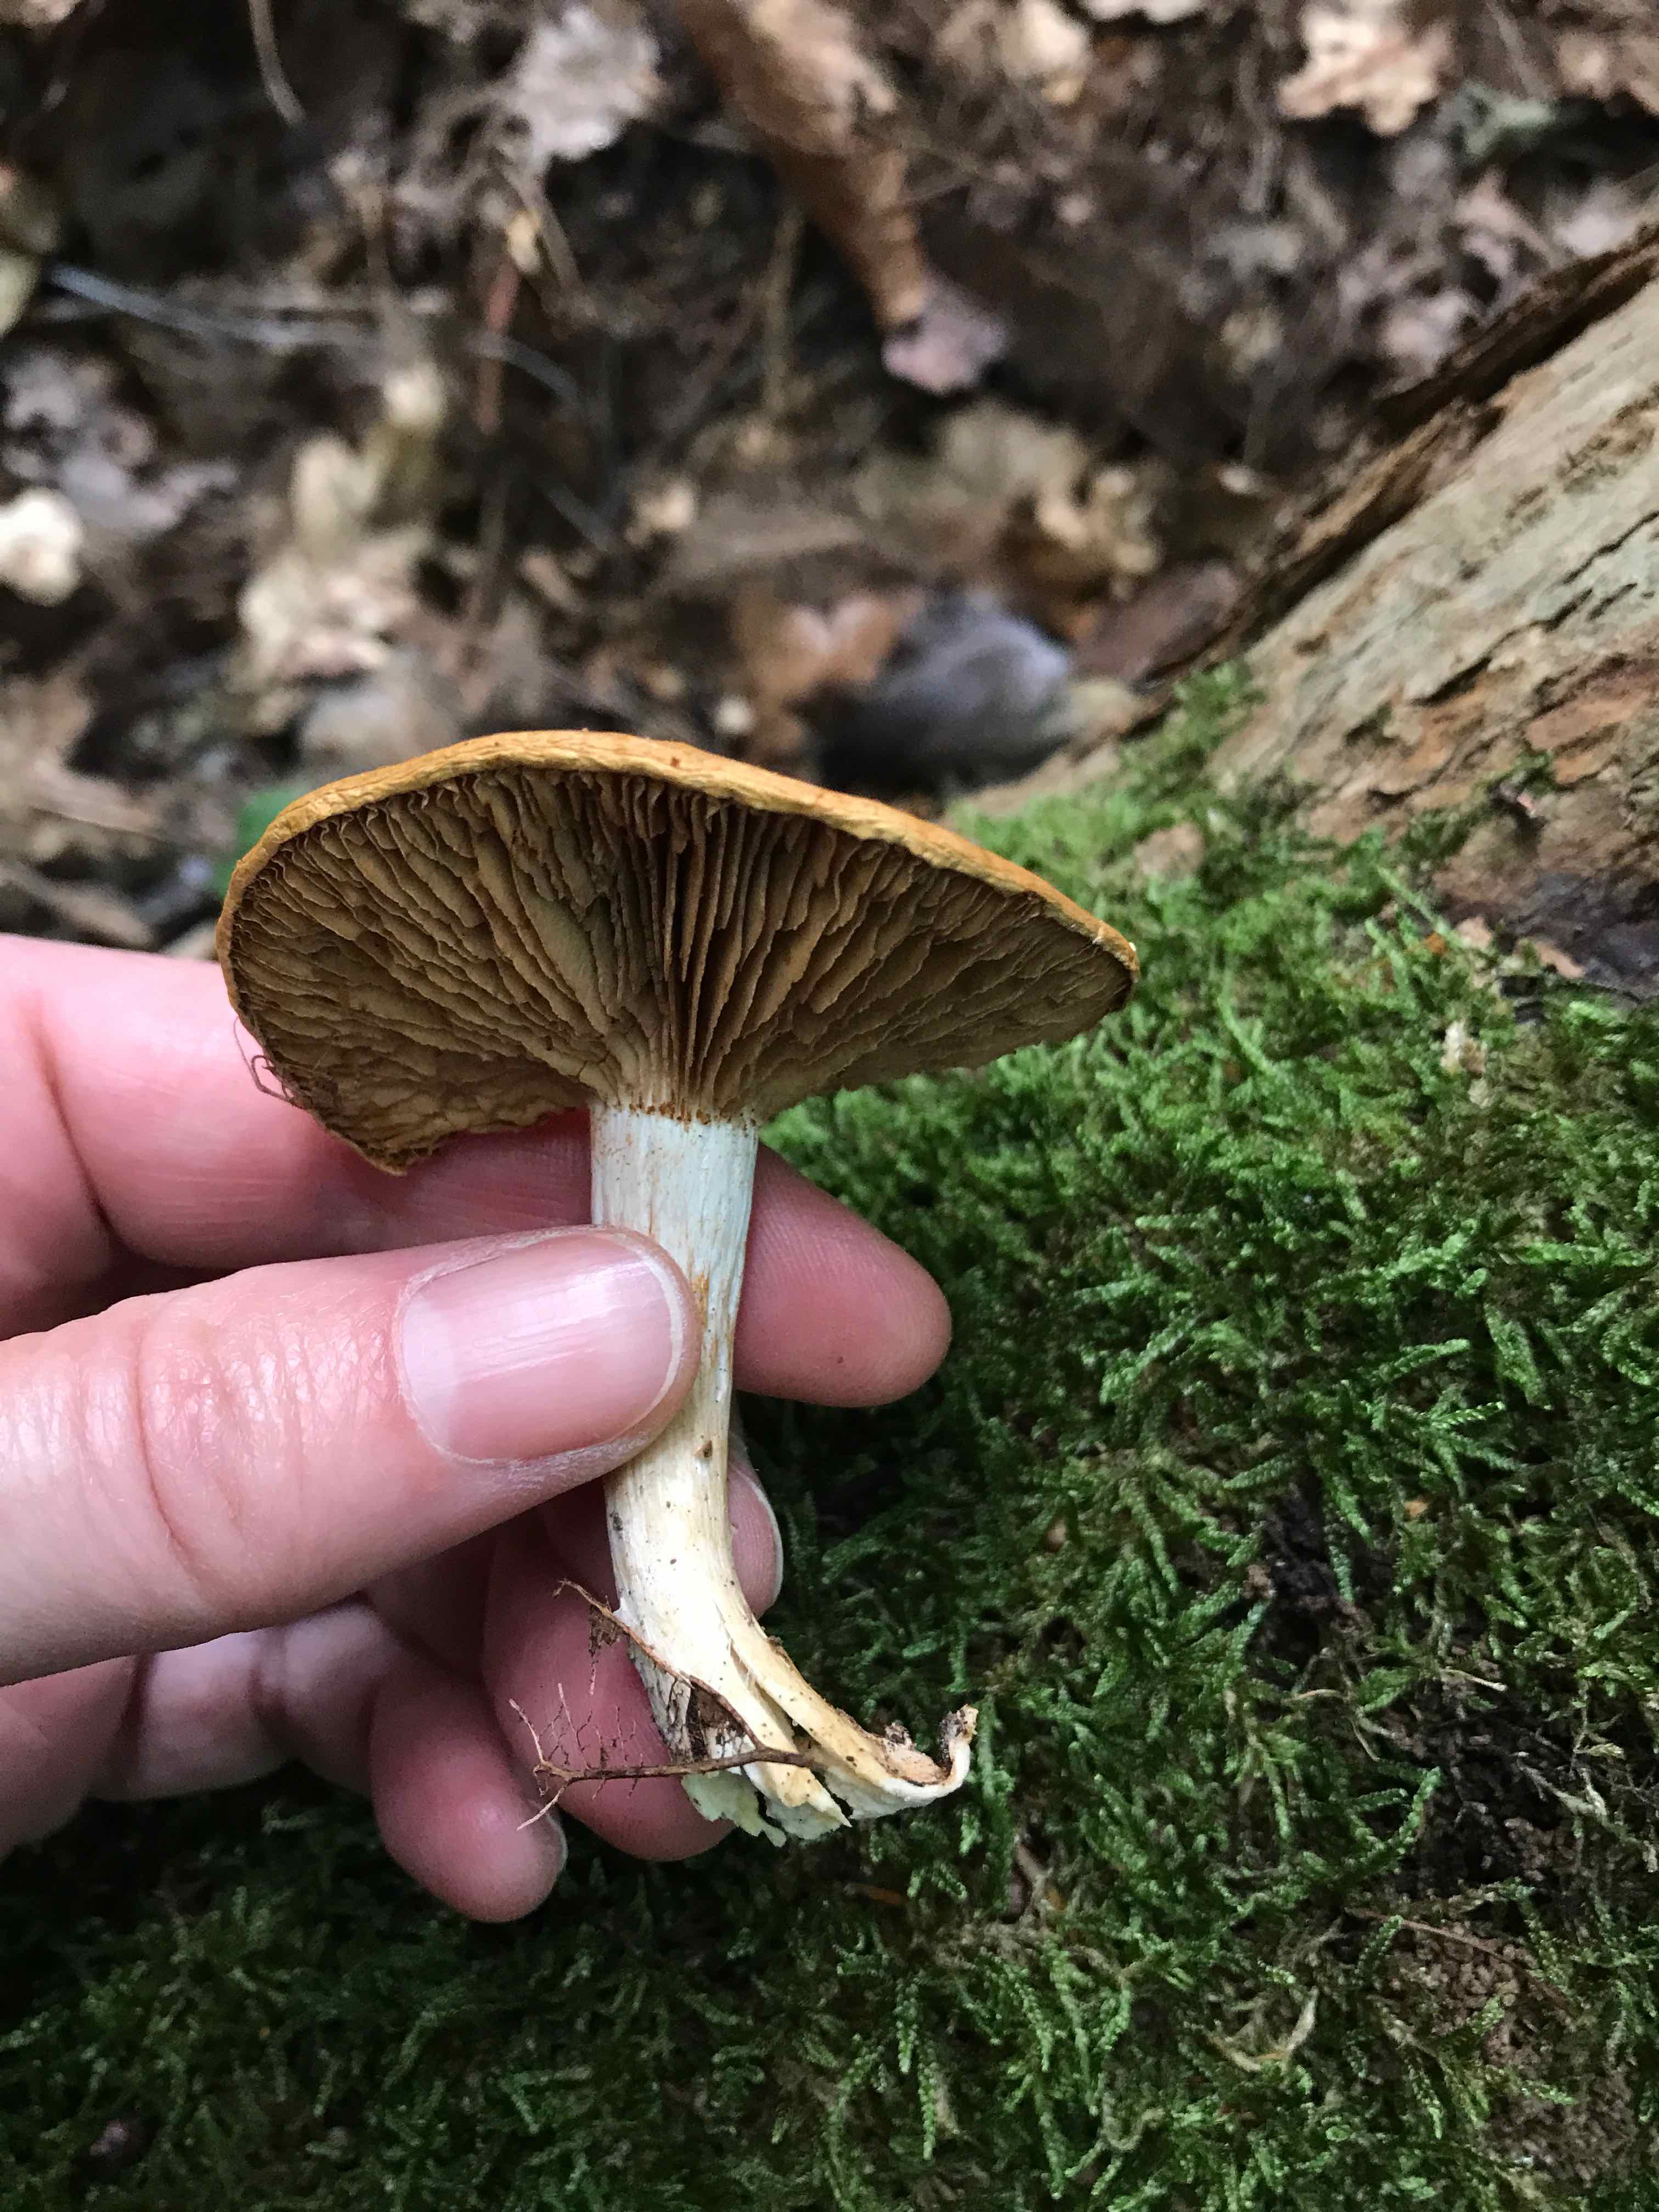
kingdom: Fungi
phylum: Basidiomycota
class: Agaricomycetes
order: Agaricales
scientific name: Agaricales
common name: champignonordenen
